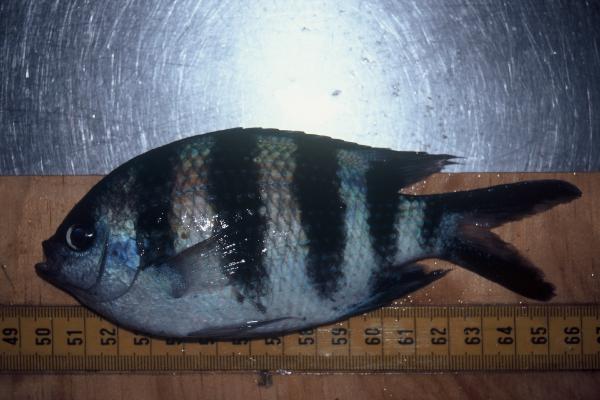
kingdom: Animalia
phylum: Chordata
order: Perciformes
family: Pomacentridae
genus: Abudefduf
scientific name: Abudefduf sexfasciatus
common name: Scissortail sergeant
